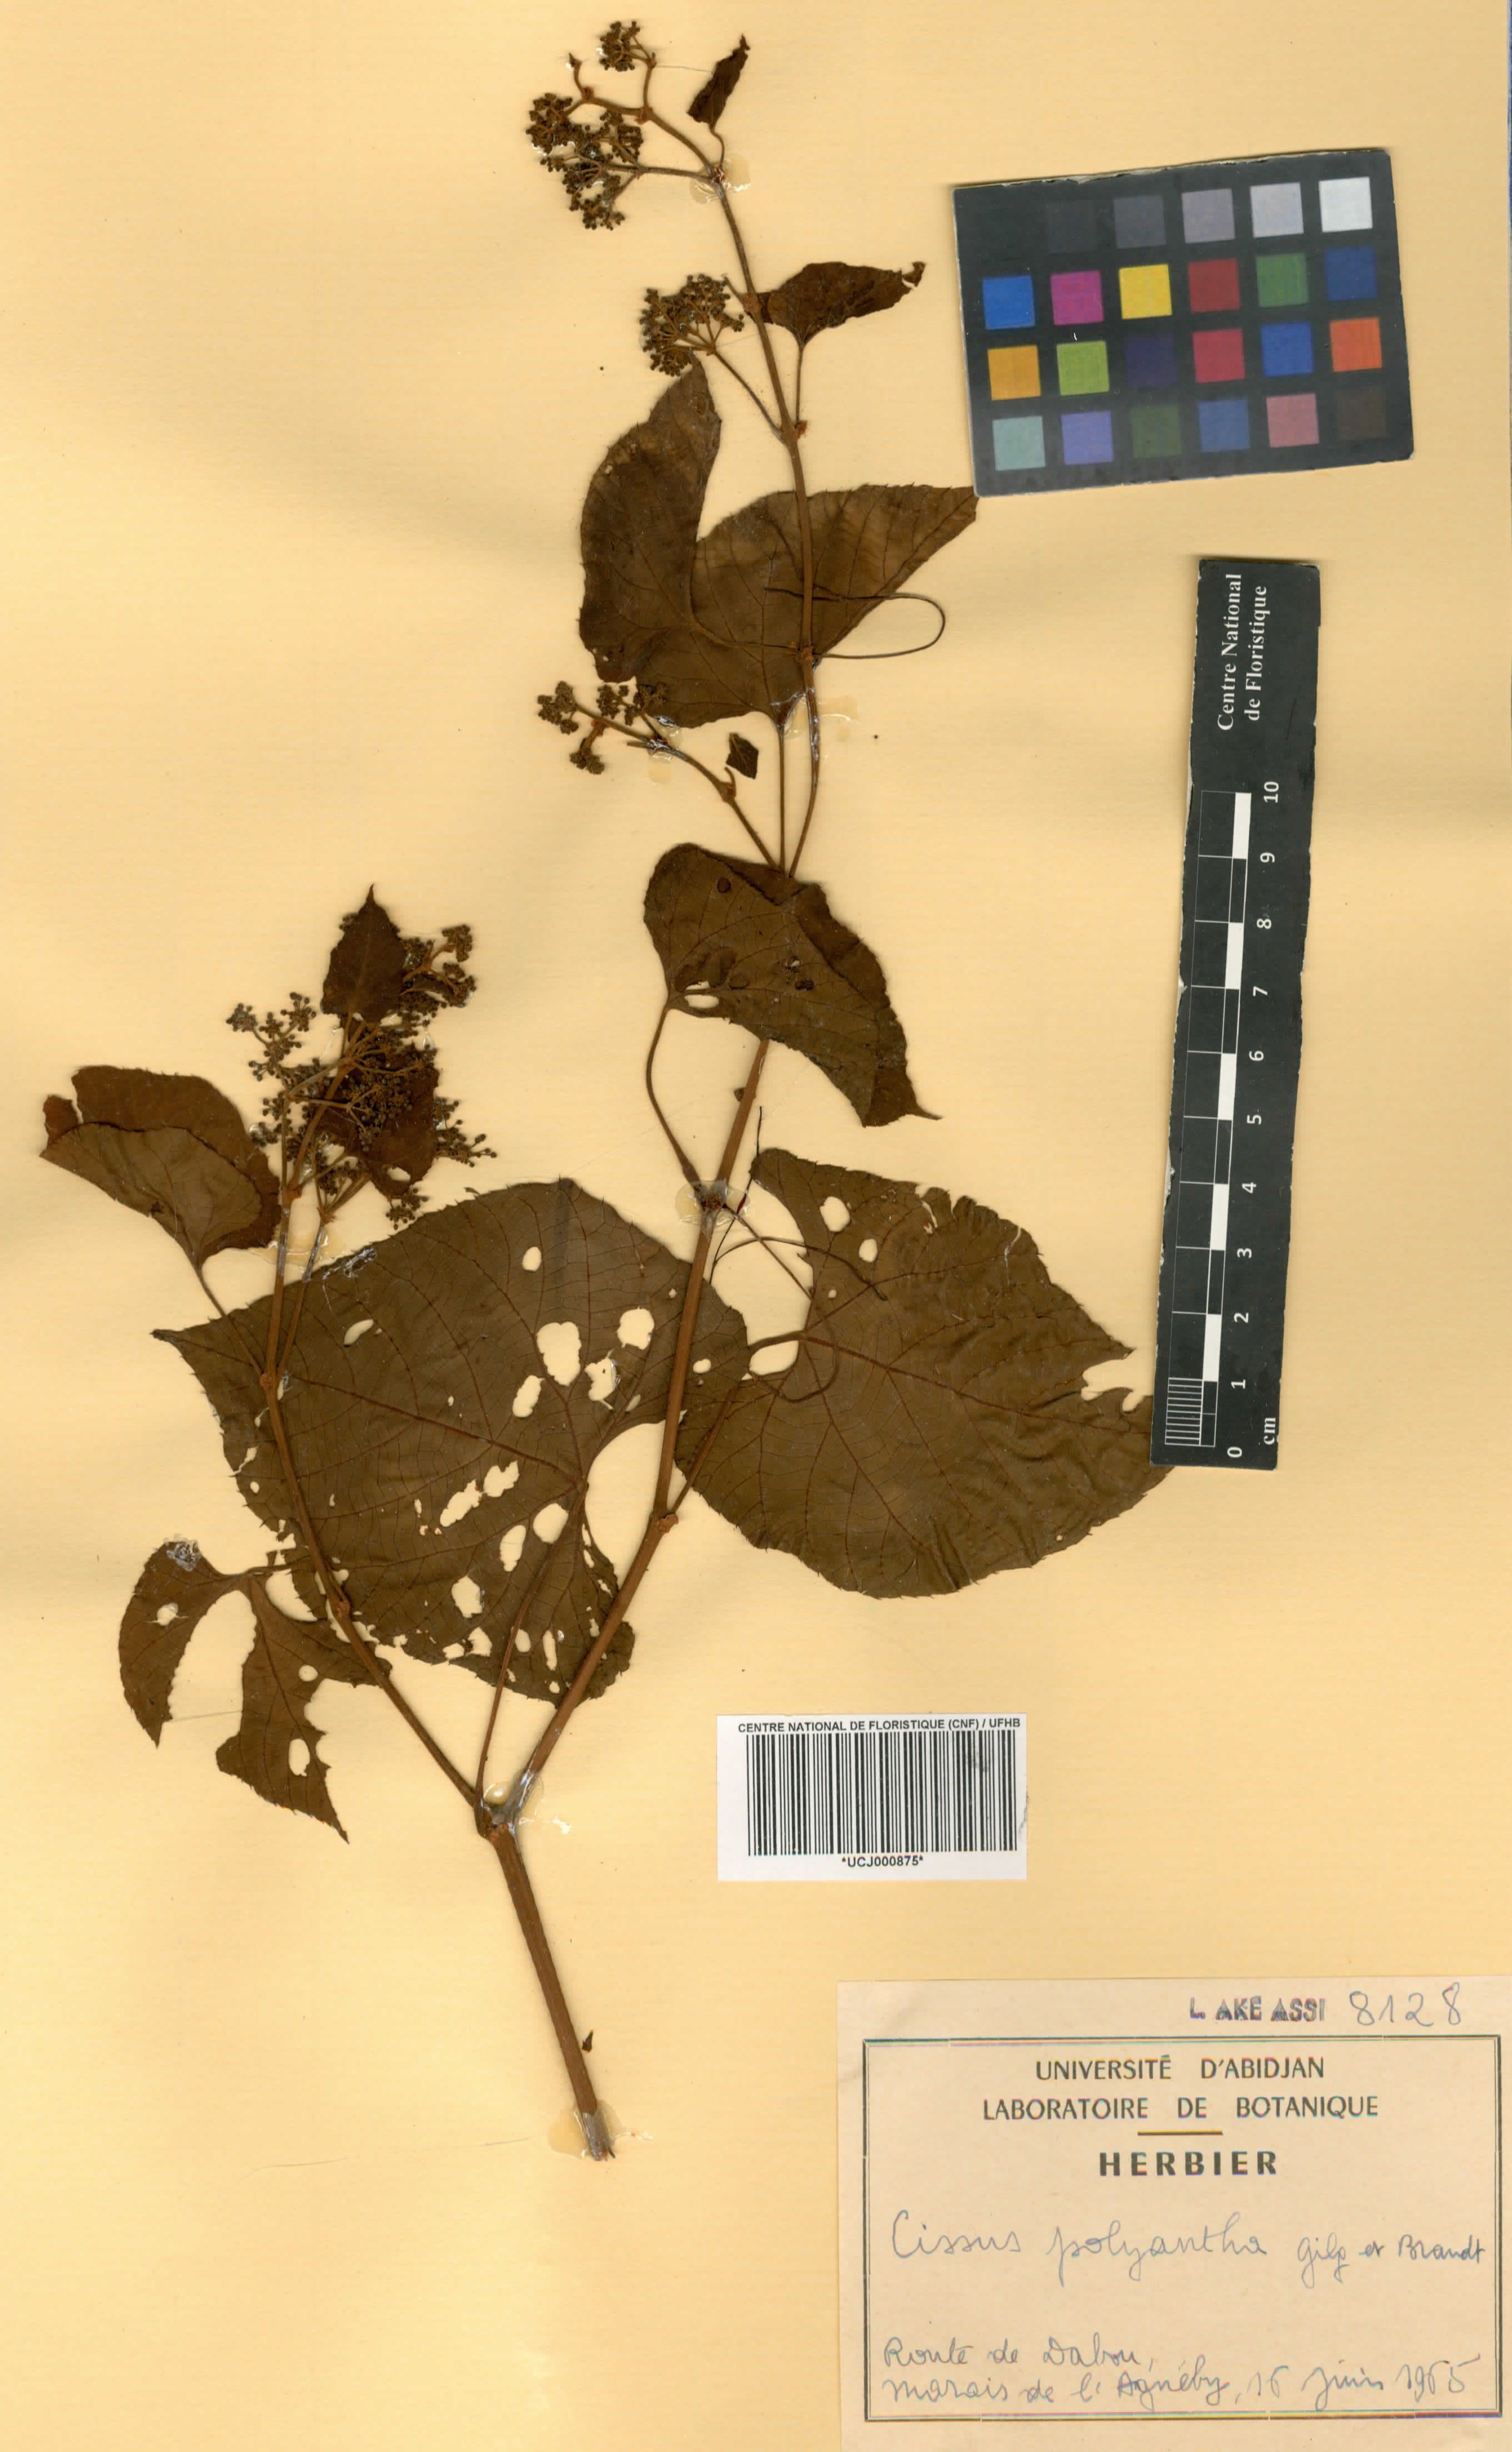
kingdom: Plantae
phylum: Tracheophyta
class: Magnoliopsida
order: Vitales
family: Vitaceae
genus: Cissus
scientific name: Cissus polyantha
